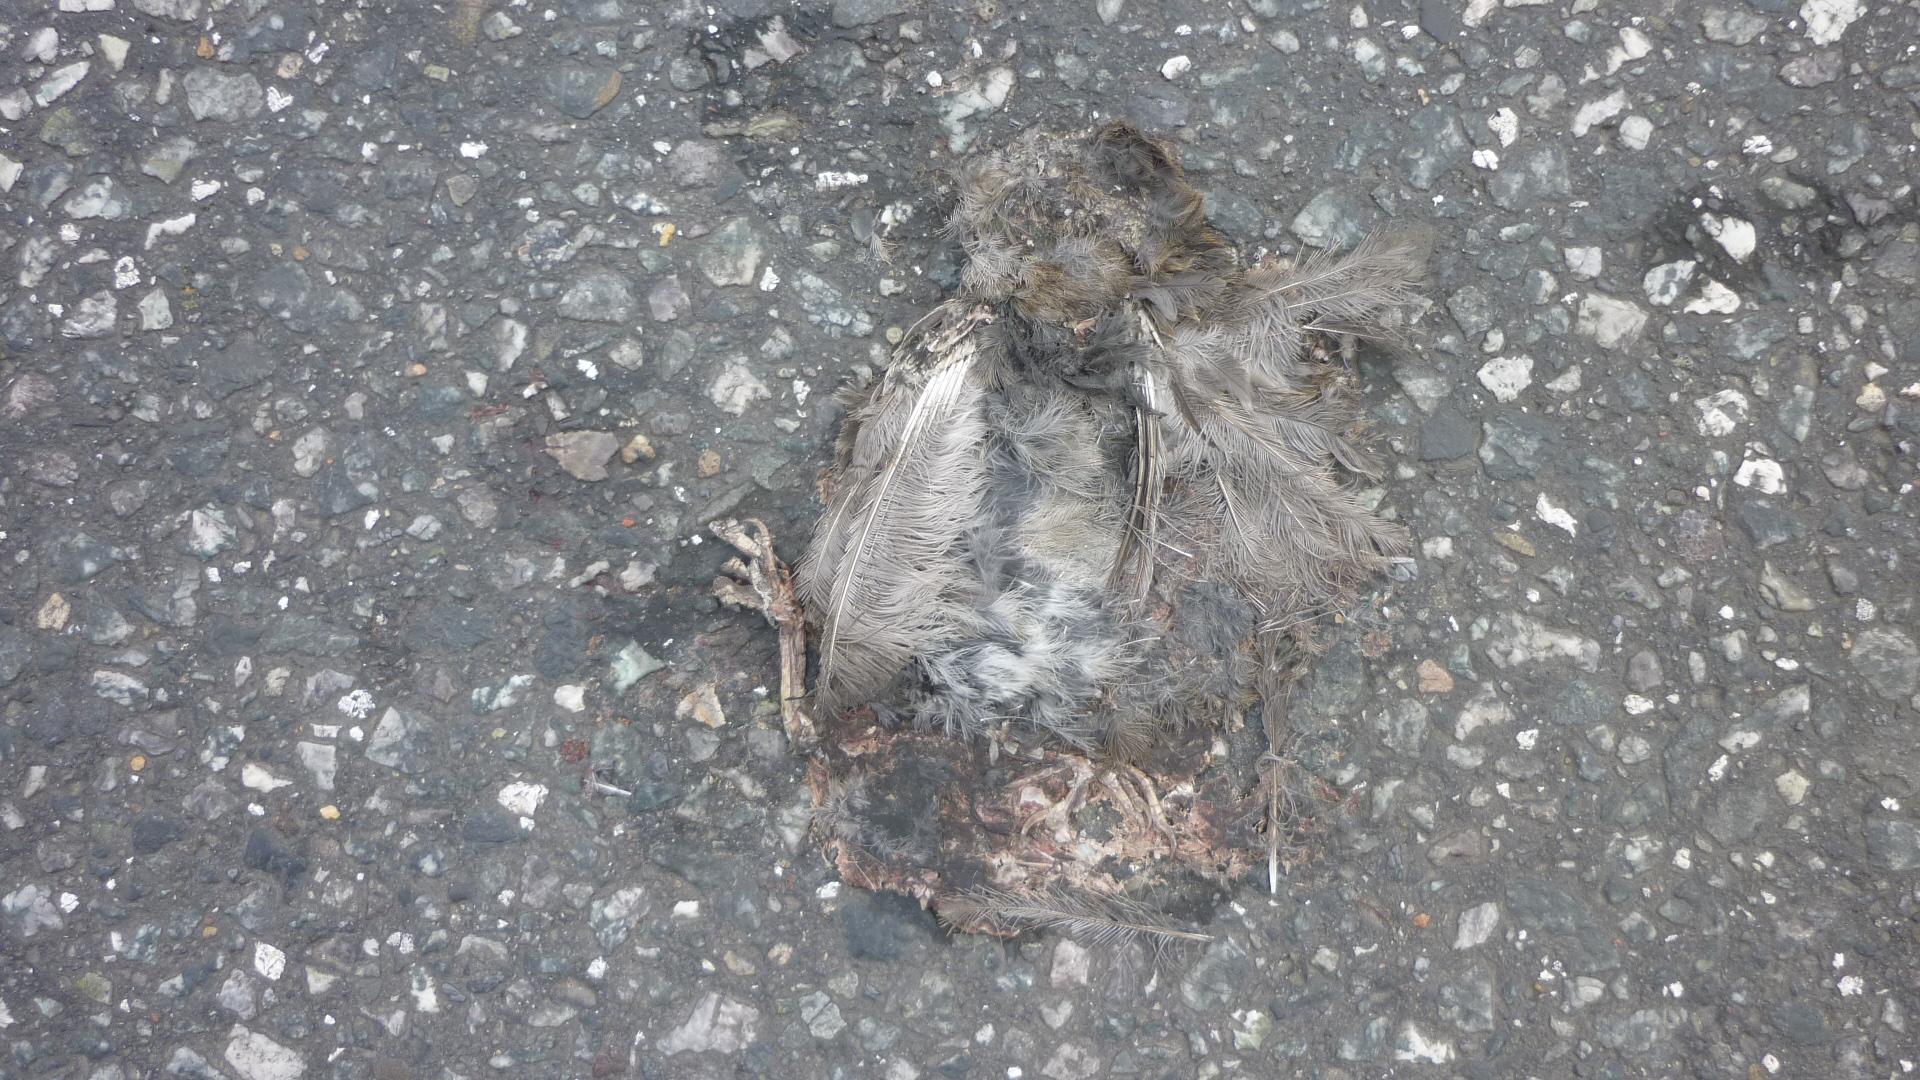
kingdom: Animalia
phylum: Chordata
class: Aves
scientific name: Aves
